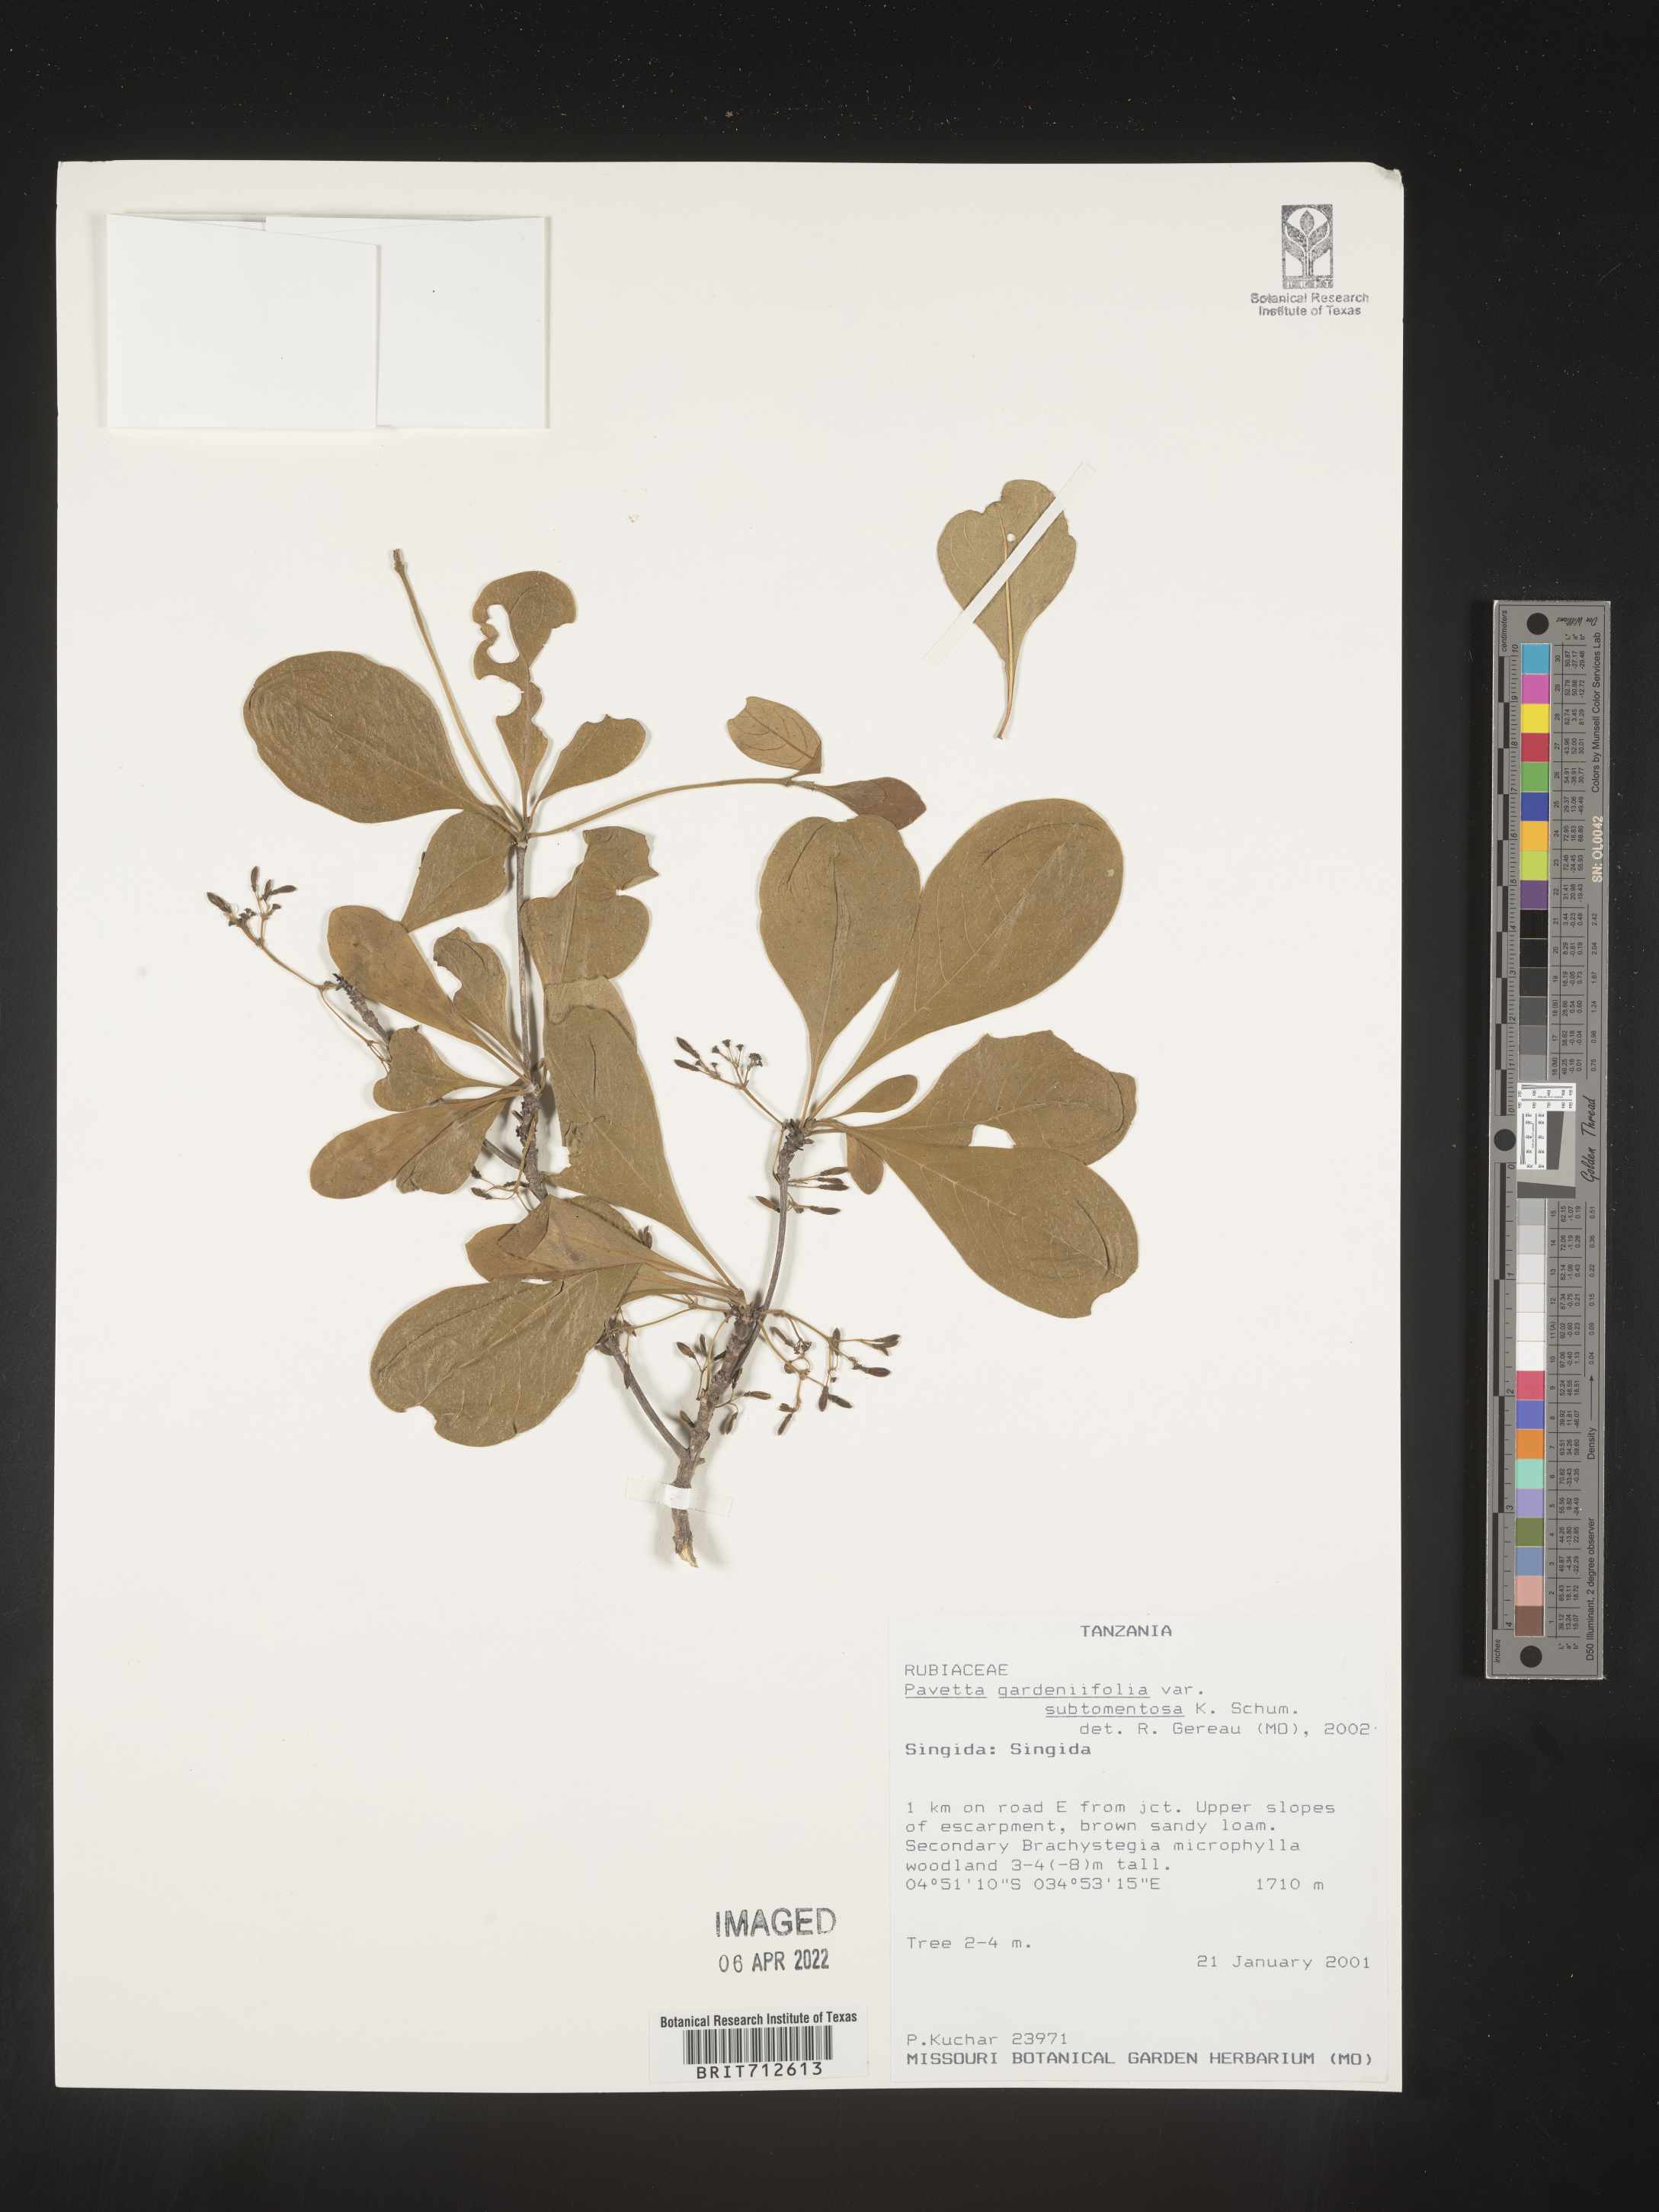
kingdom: Plantae
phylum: Tracheophyta
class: Magnoliopsida
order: Gentianales
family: Rubiaceae
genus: Pavetta
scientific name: Pavetta
